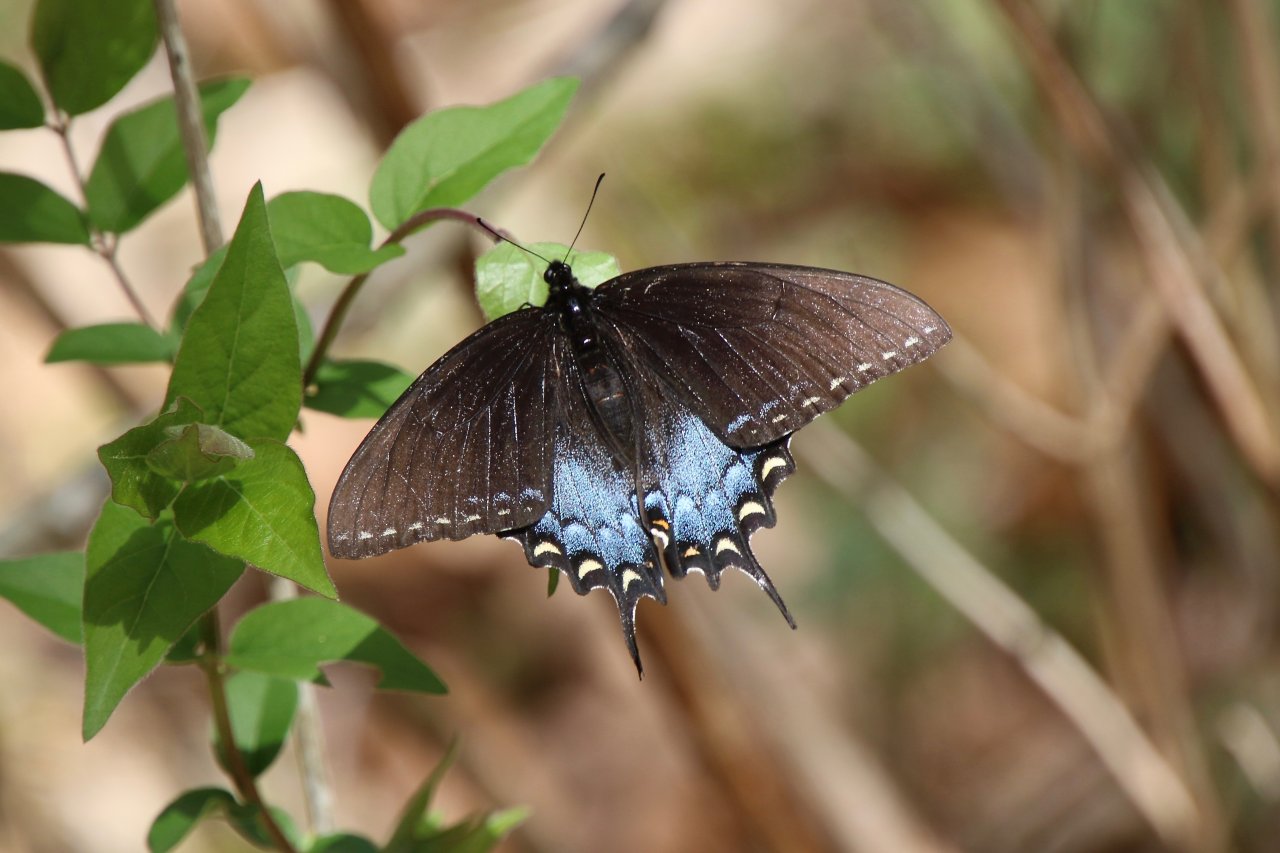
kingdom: Animalia
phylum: Arthropoda
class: Insecta
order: Lepidoptera
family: Papilionidae
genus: Pterourus
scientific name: Pterourus glaucus
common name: Eastern Tiger Swallowtail
